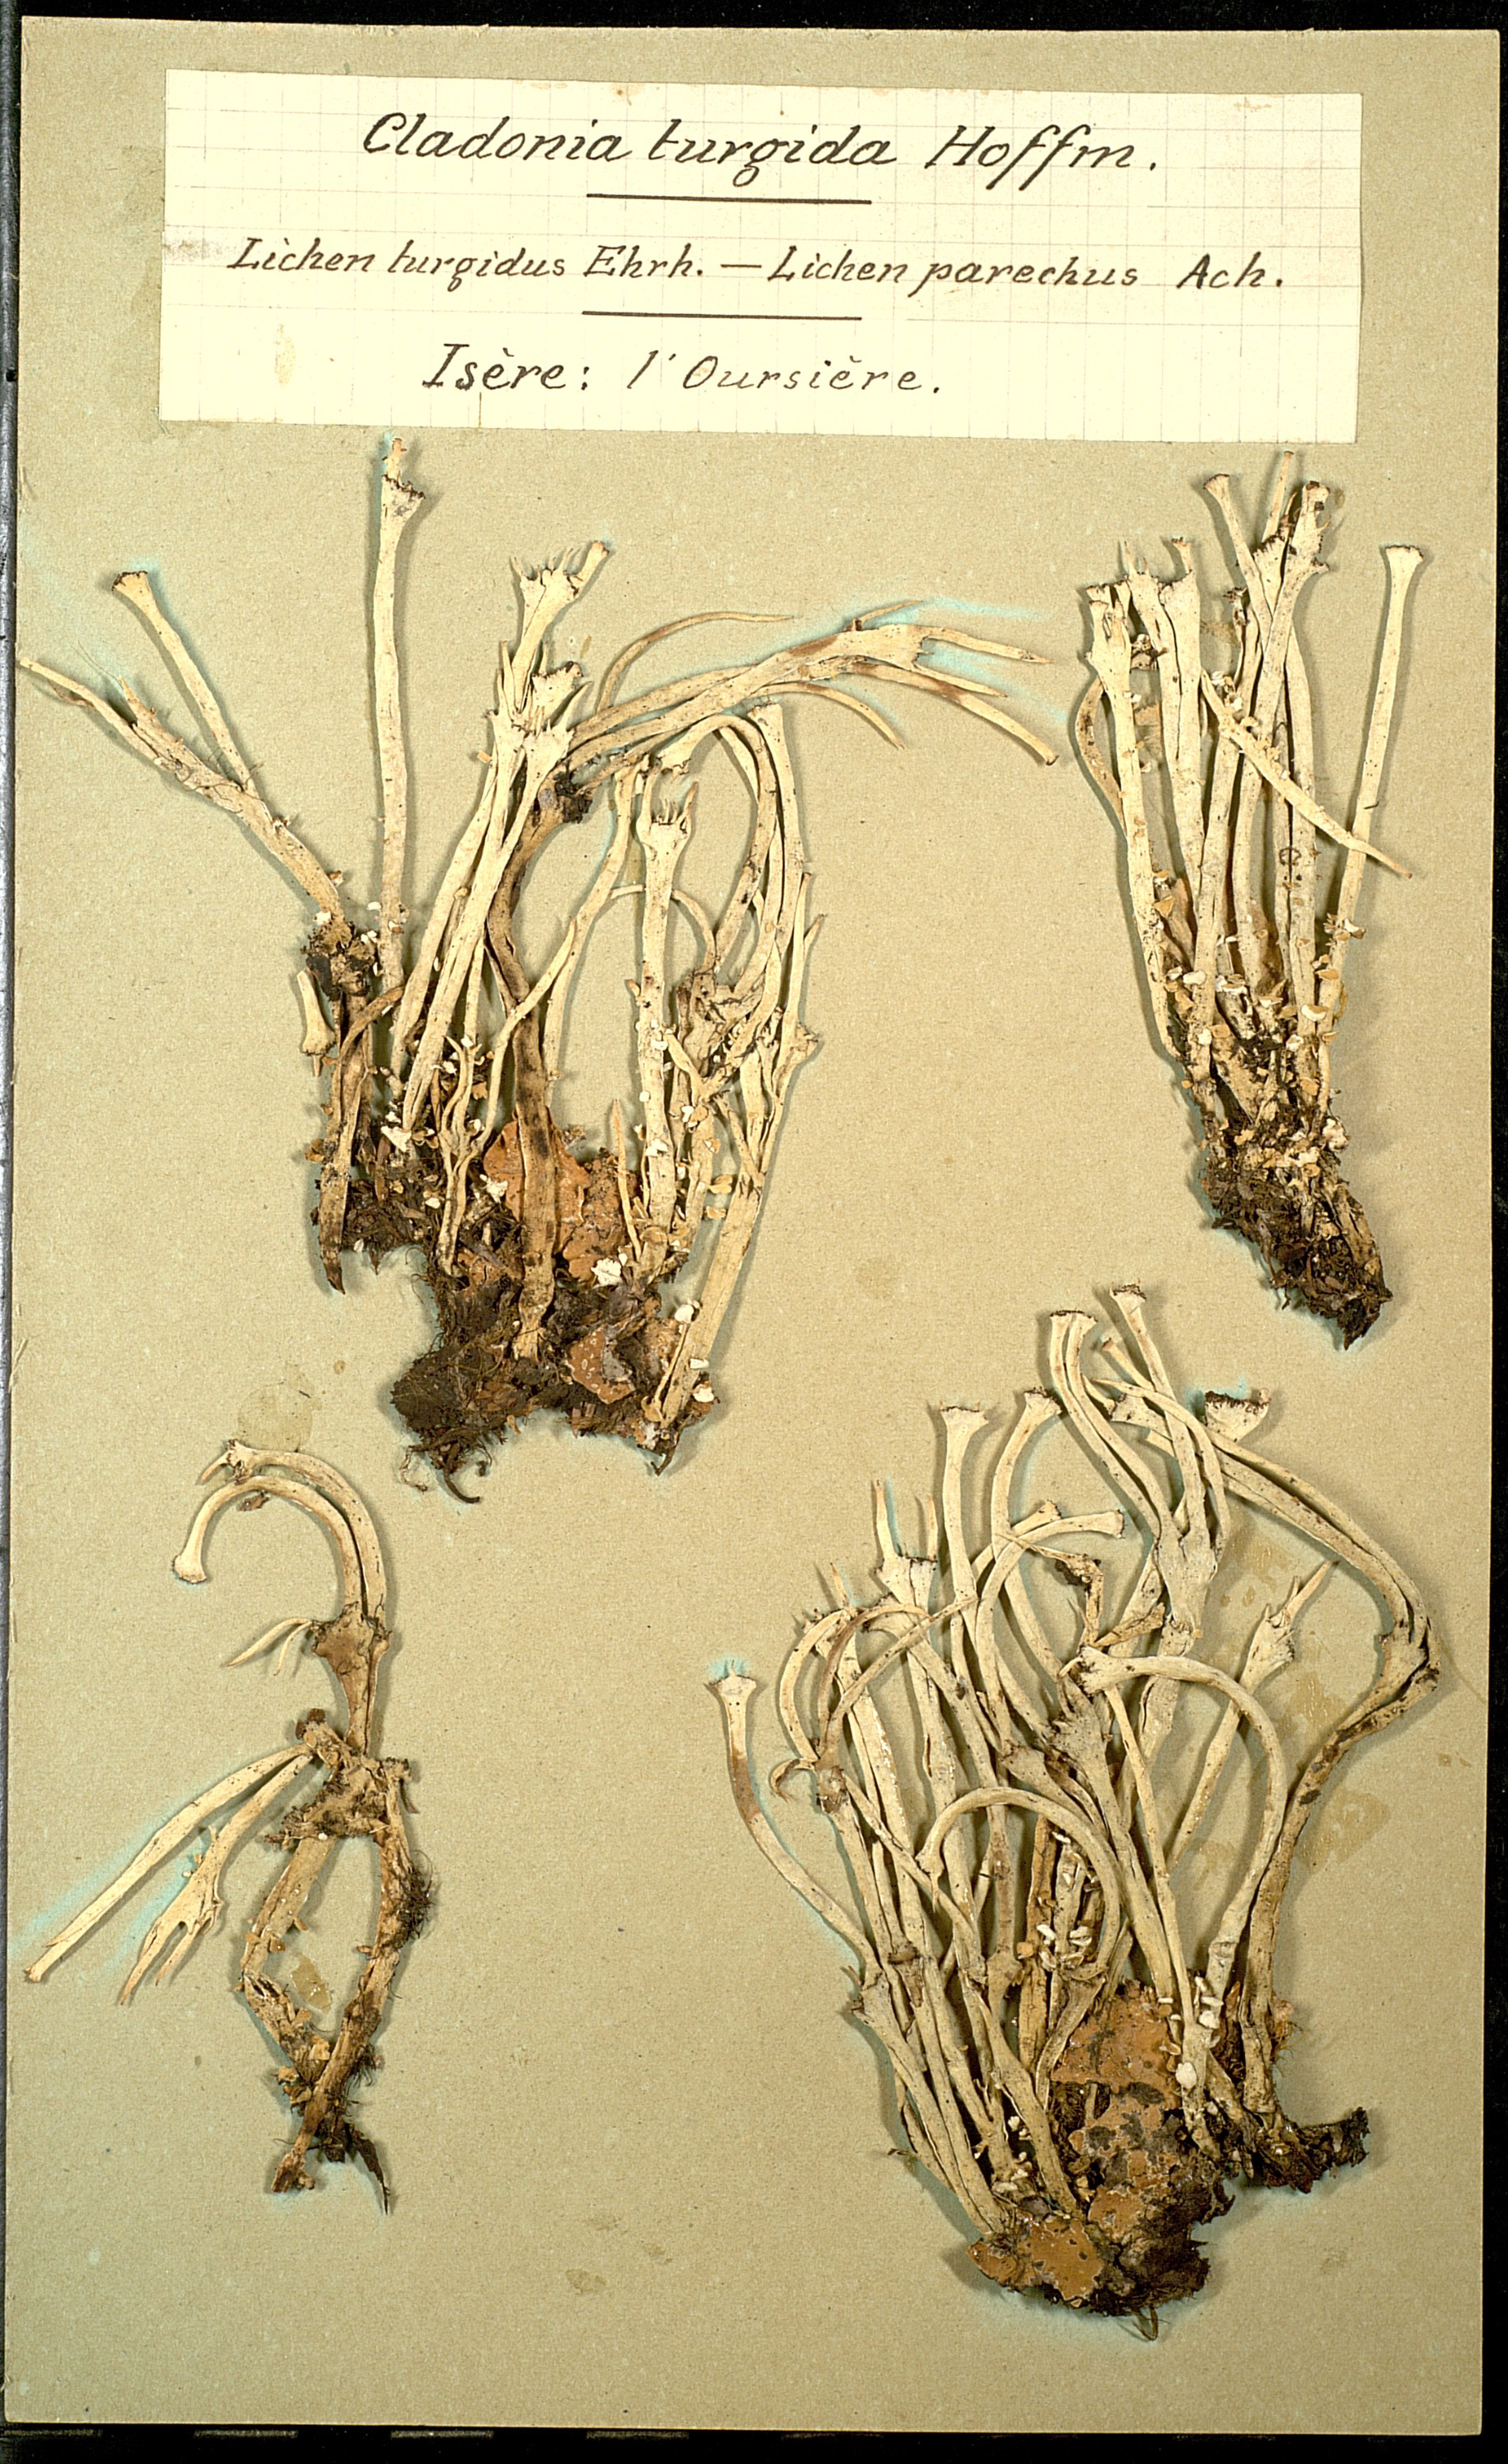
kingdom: Fungi
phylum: Ascomycota
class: Lecanoromycetes
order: Lecanorales
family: Cladoniaceae
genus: Cladonia
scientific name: Cladonia turgida
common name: Crazy scale lichen
